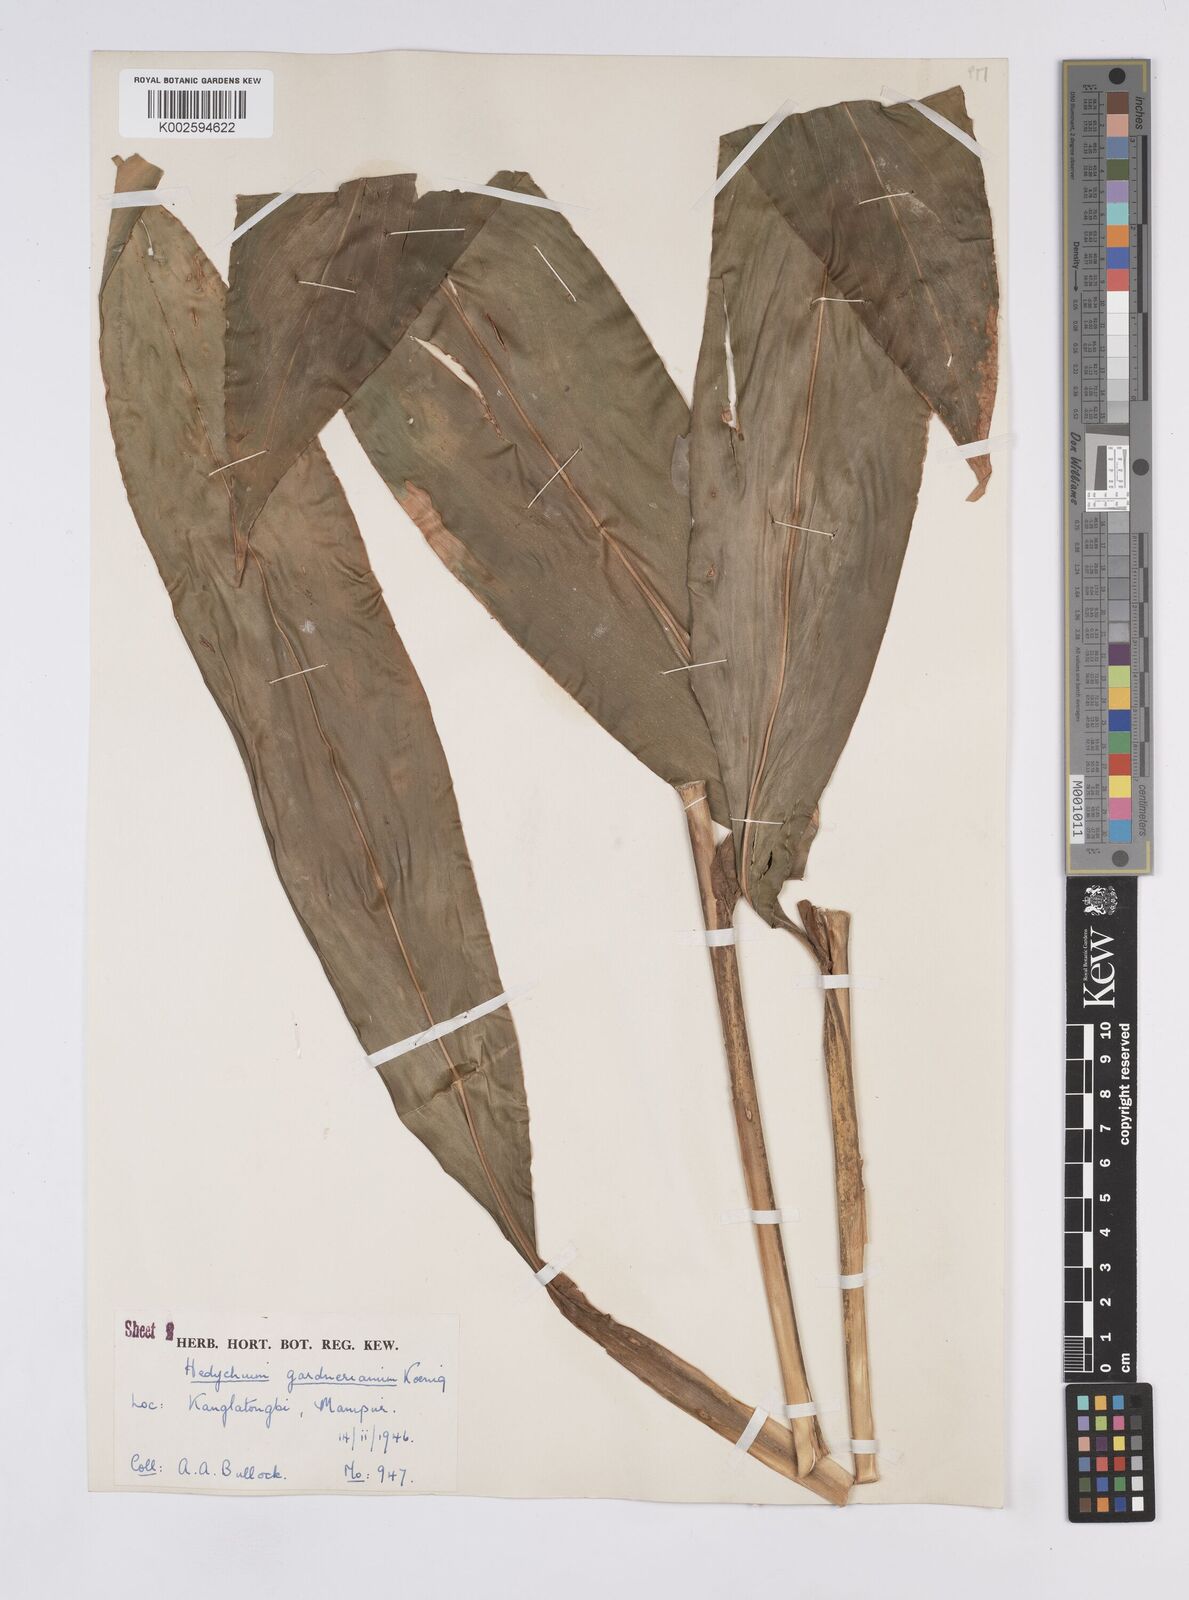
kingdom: Plantae
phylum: Tracheophyta
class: Liliopsida
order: Zingiberales
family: Zingiberaceae
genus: Hedychium
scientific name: Hedychium gardnerianum
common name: Himalayan ginger
